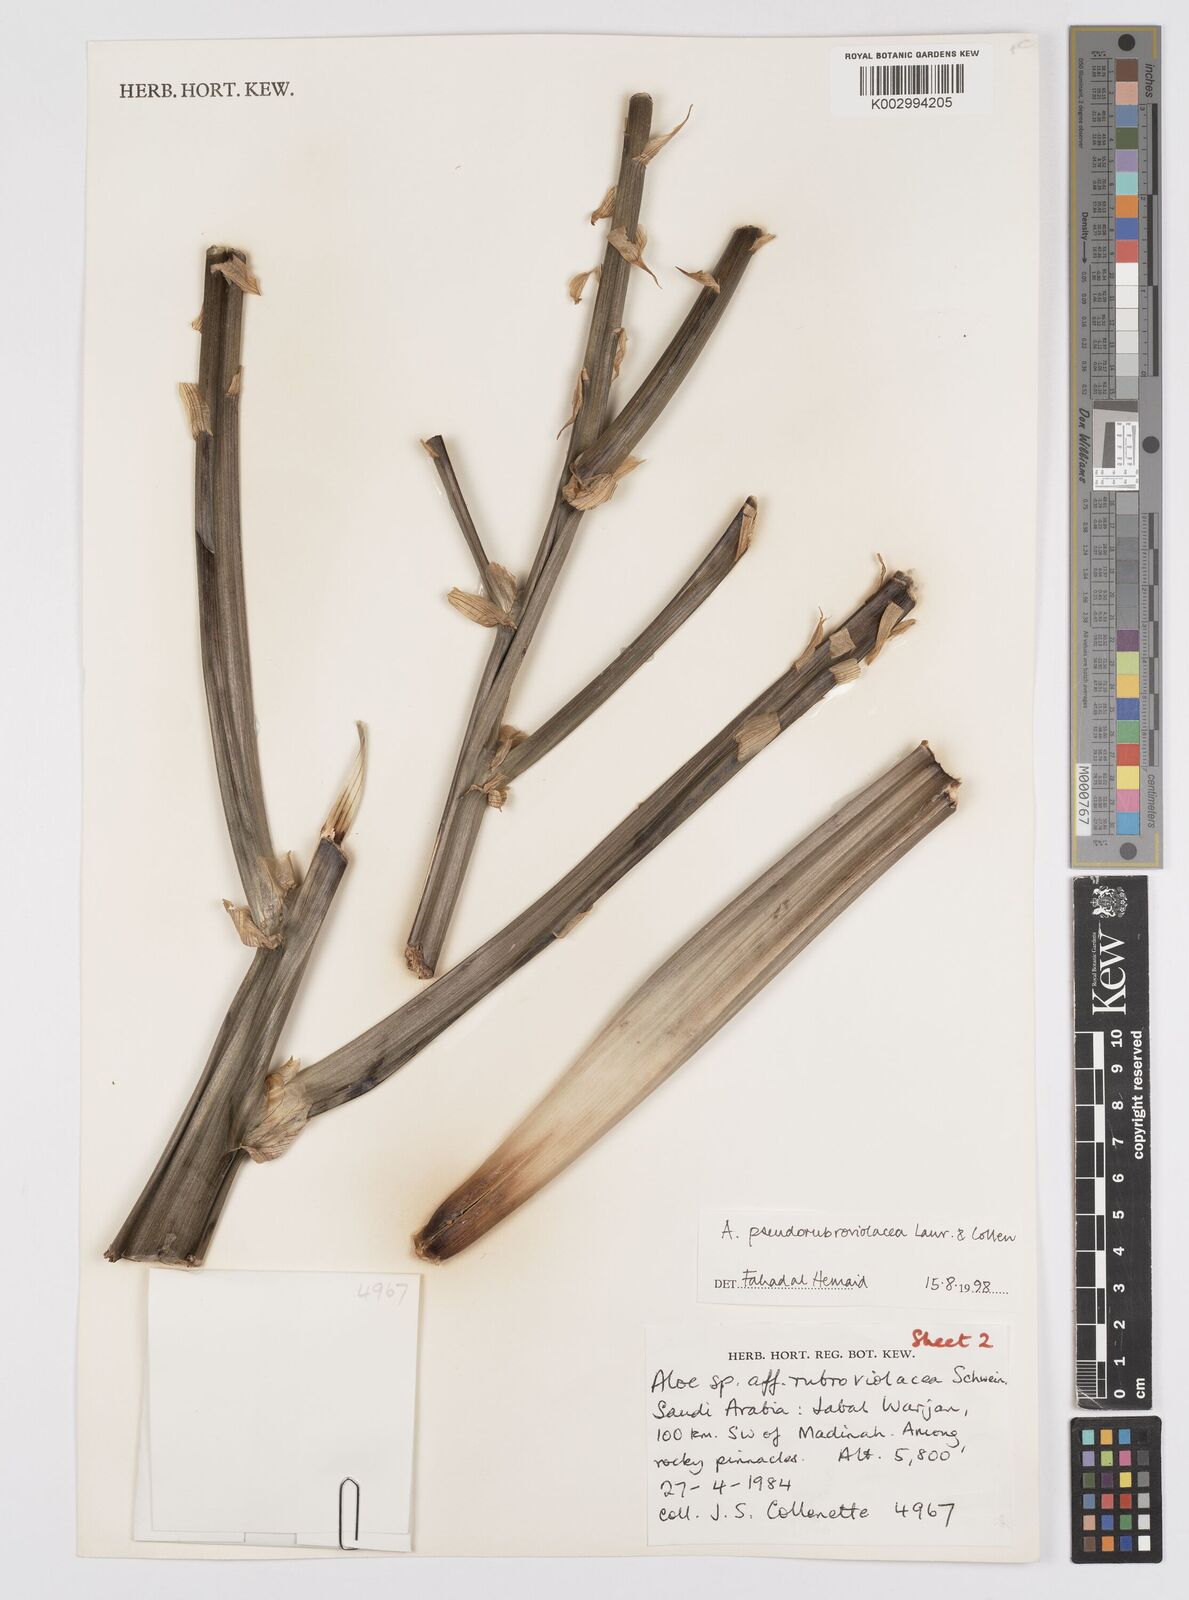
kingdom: Plantae
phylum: Tracheophyta
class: Liliopsida
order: Asparagales
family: Asphodelaceae
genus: Aloe
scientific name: Aloe pseudorubroviolacea
